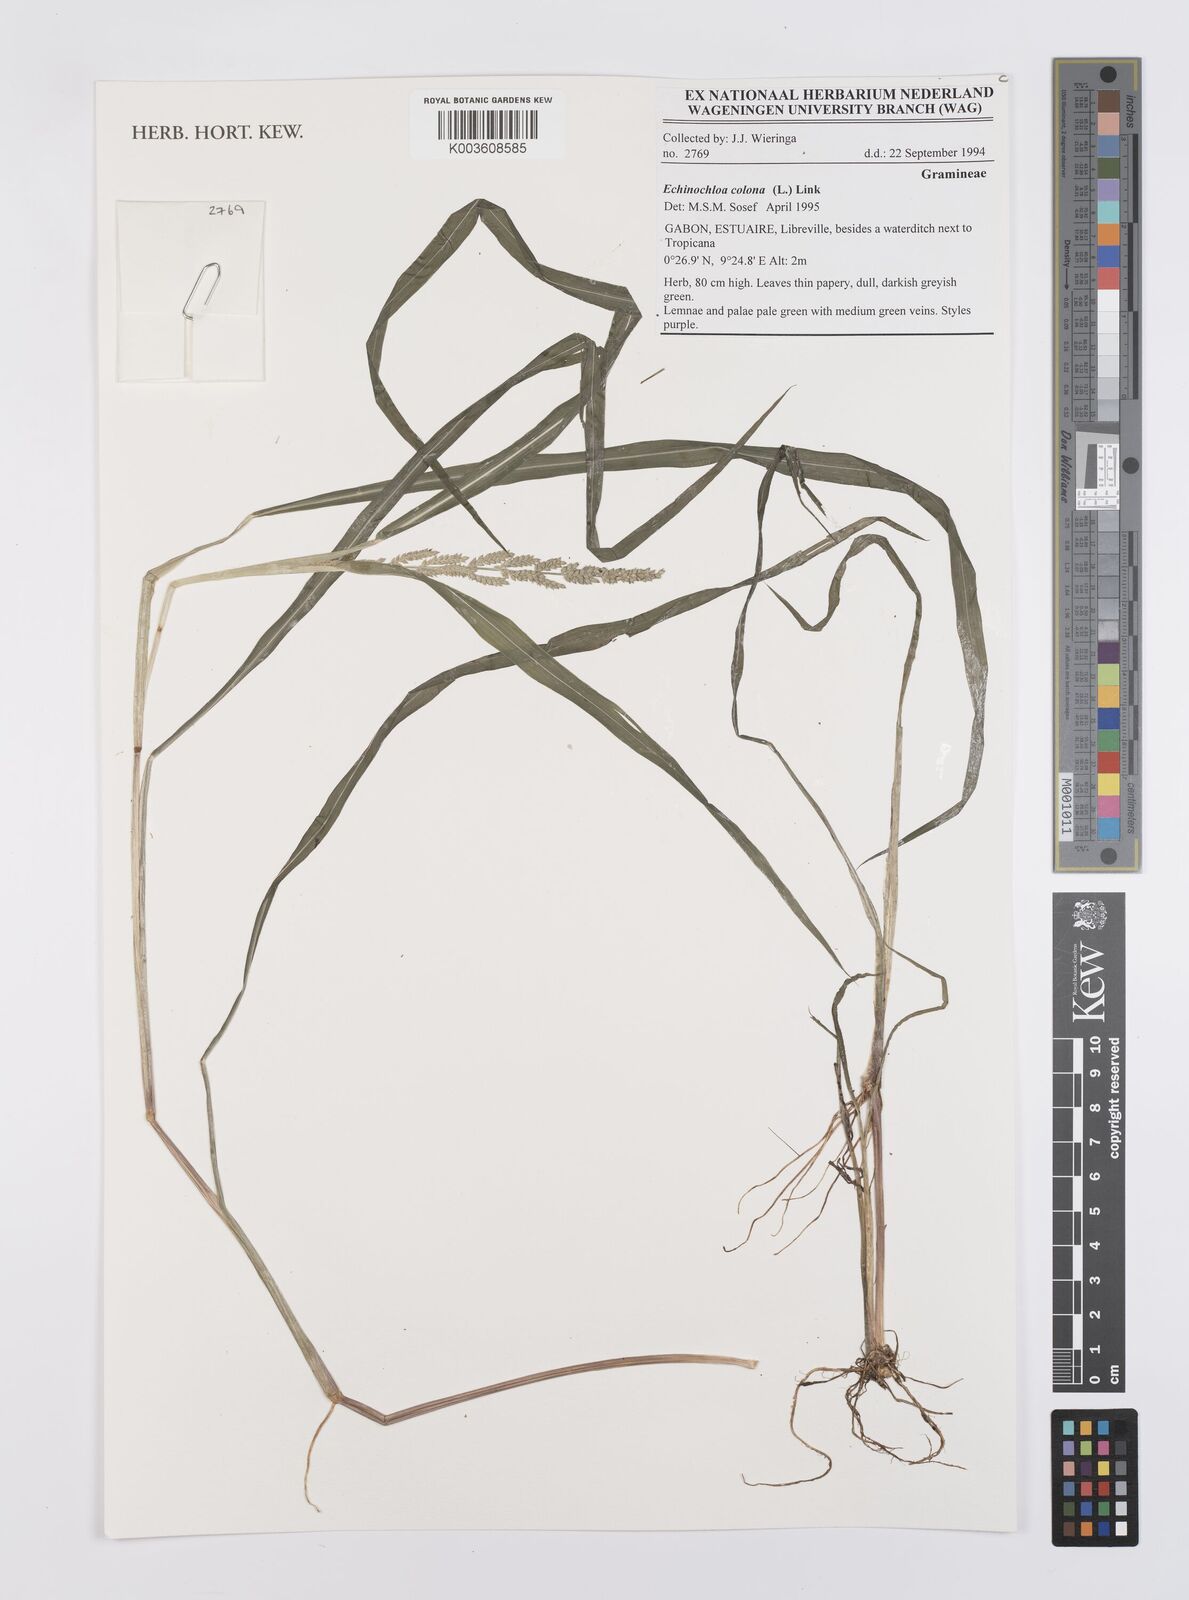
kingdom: Plantae
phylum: Tracheophyta
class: Liliopsida
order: Poales
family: Poaceae
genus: Echinochloa
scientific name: Echinochloa colonum
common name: Jungle rice
